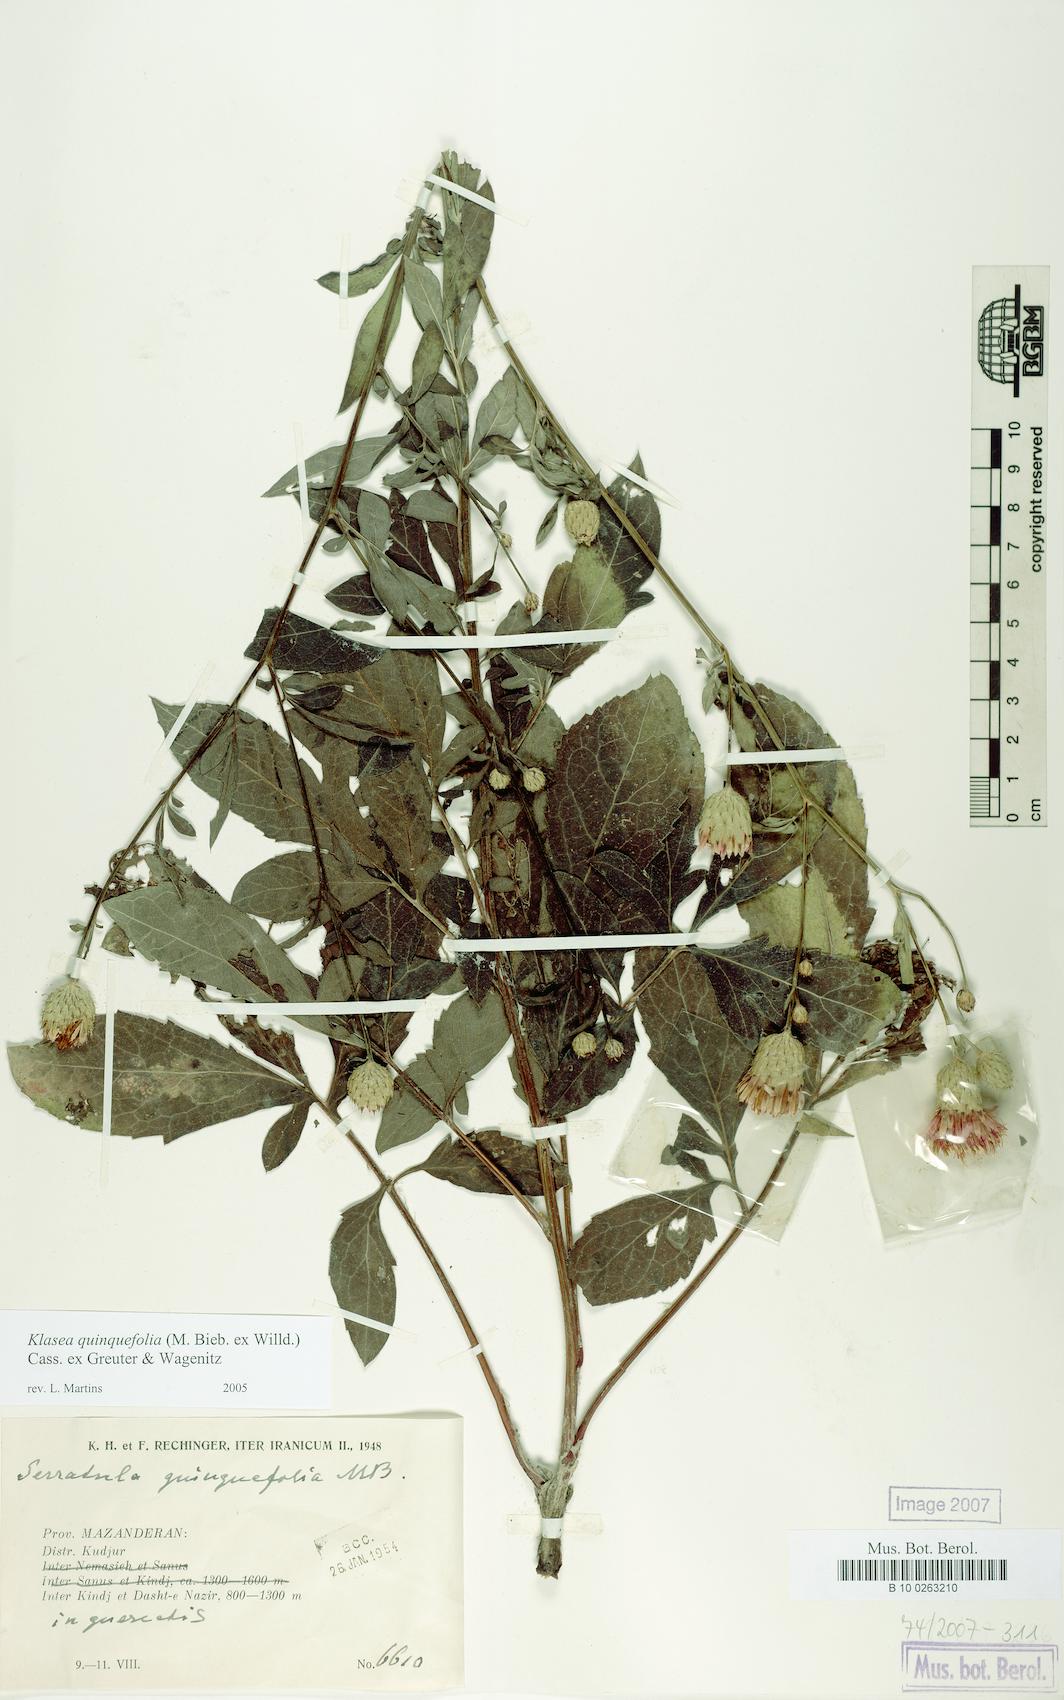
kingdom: Plantae
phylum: Tracheophyta
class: Magnoliopsida
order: Asterales
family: Asteraceae
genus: Klasea
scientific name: Klasea quinquefolia
